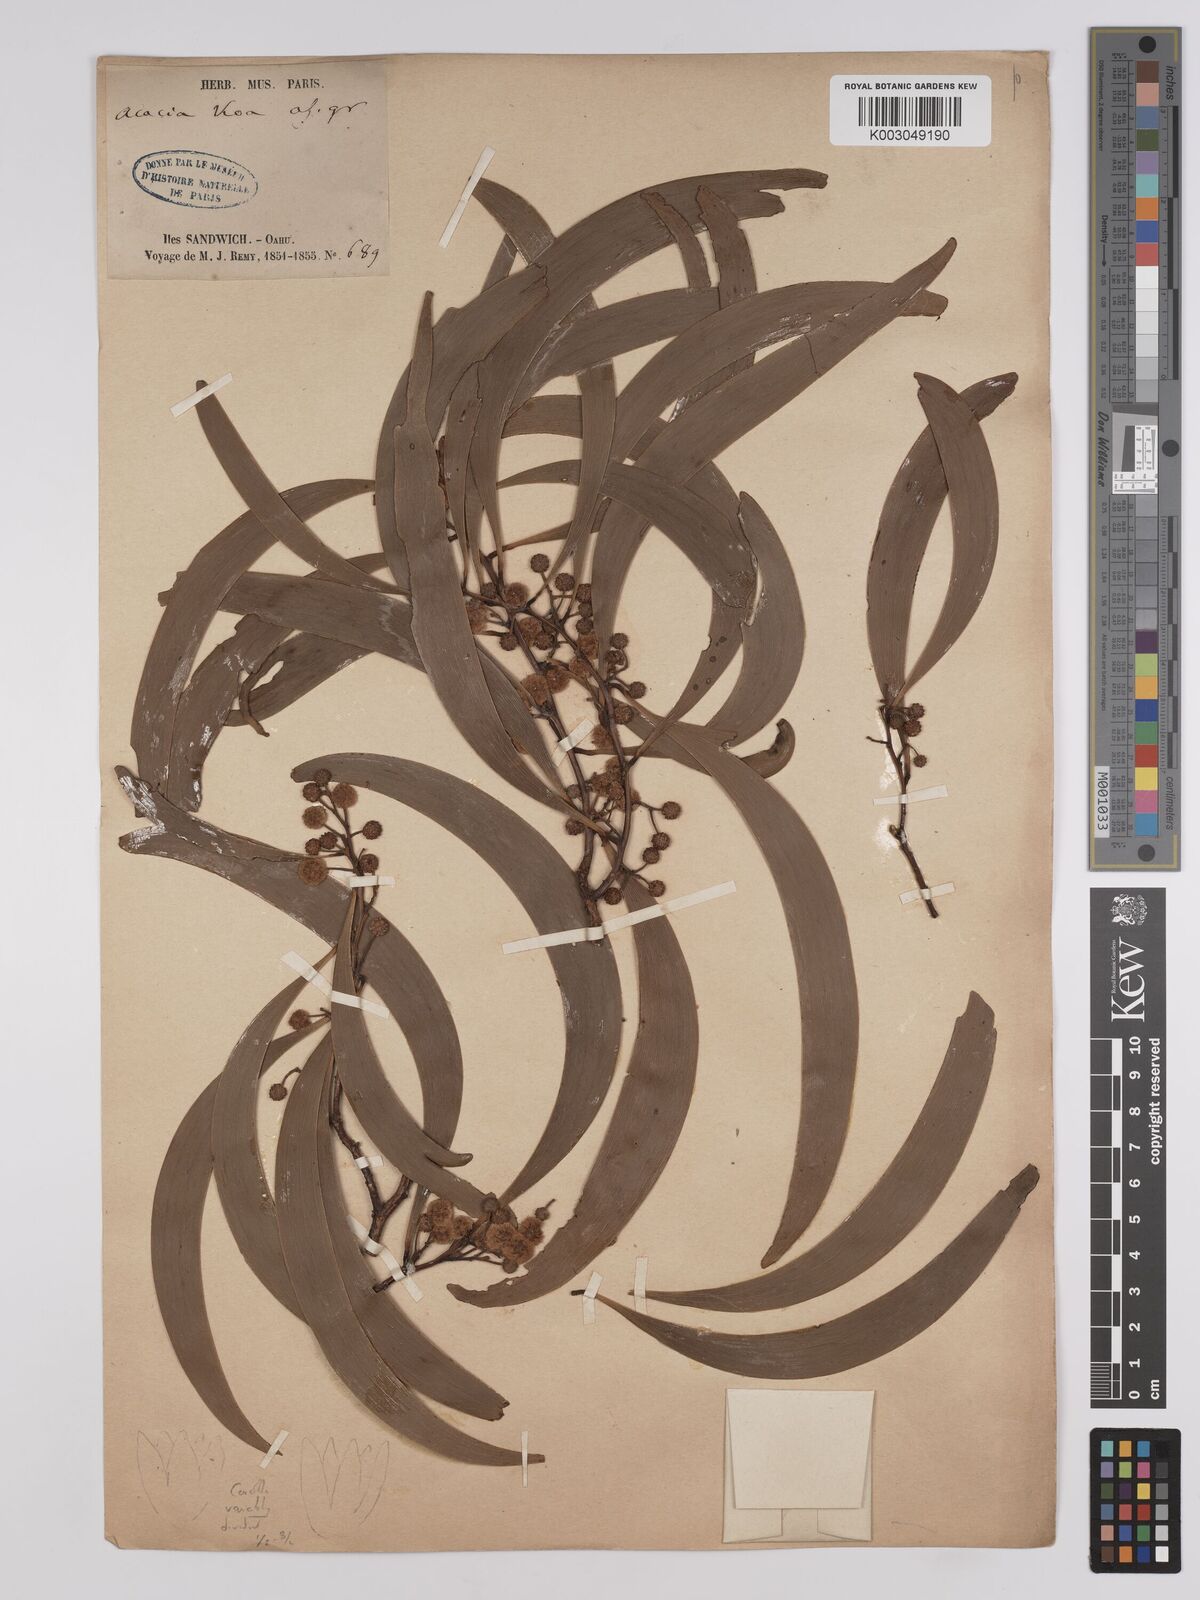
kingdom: Plantae
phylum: Tracheophyta
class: Magnoliopsida
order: Fabales
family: Fabaceae
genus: Acacia
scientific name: Acacia koa
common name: Gray koa
